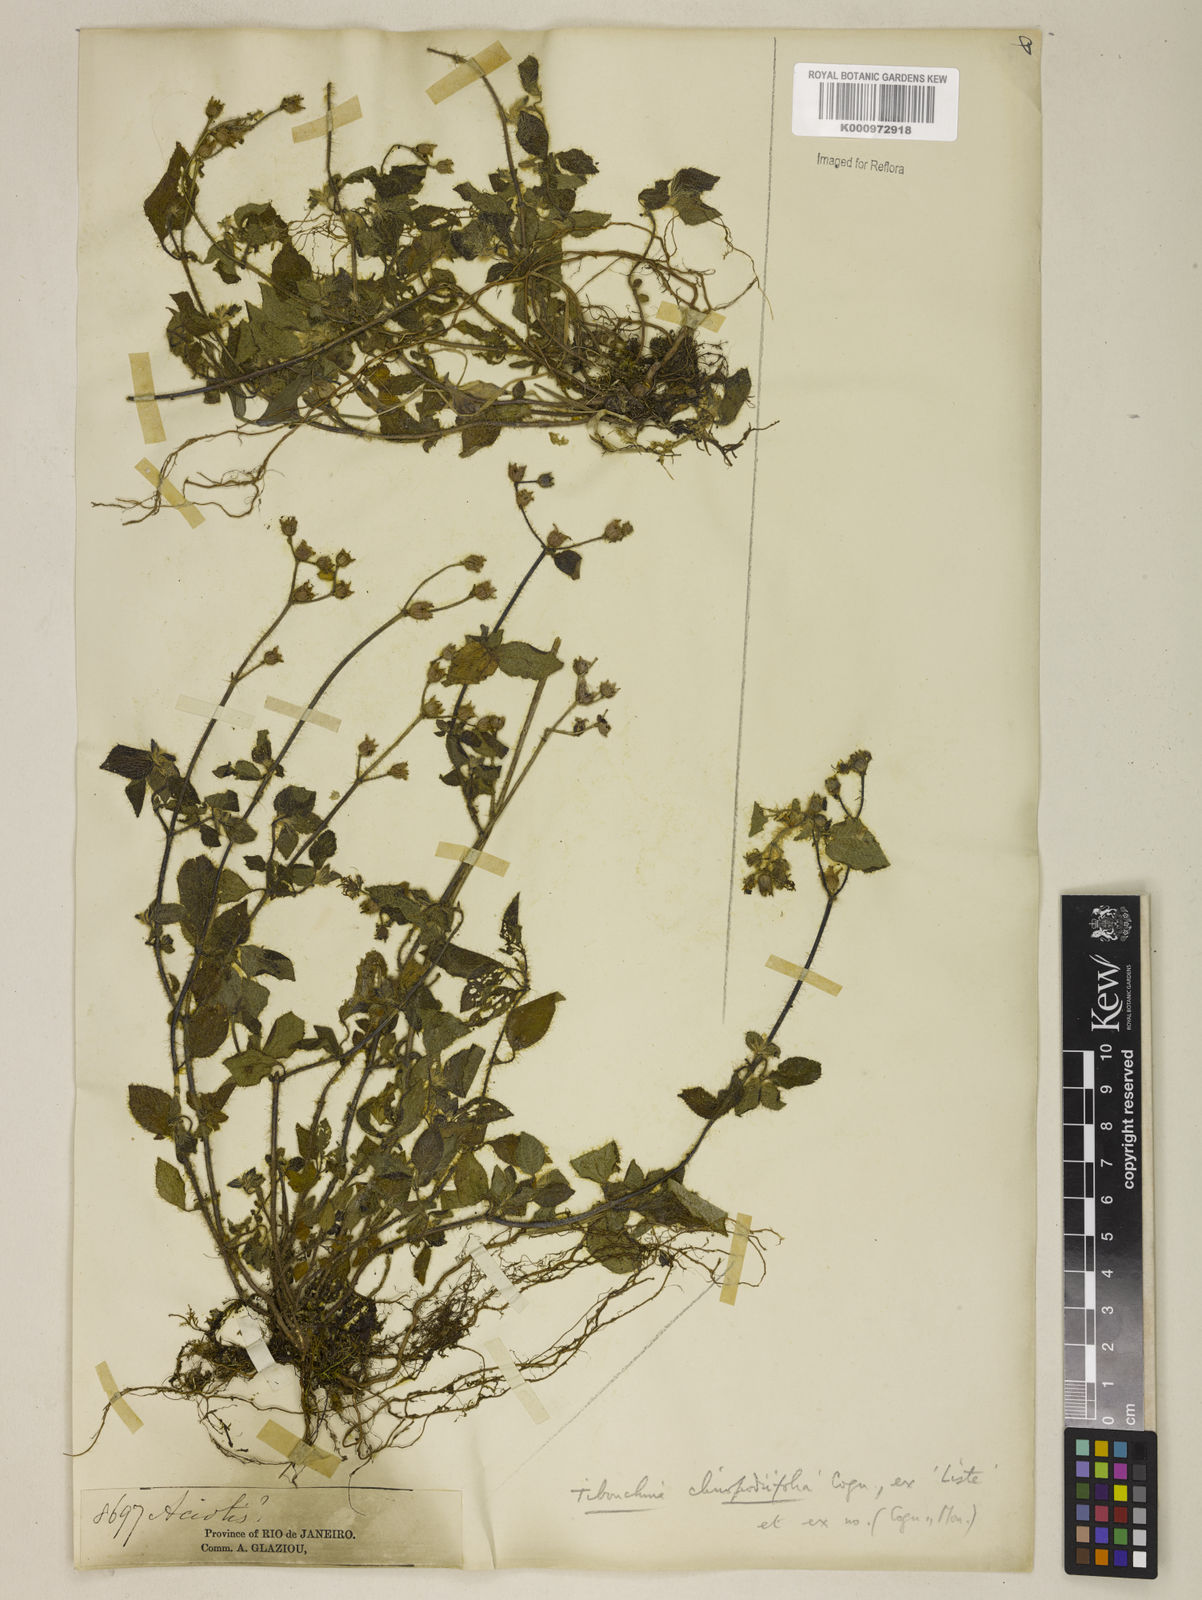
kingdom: Plantae
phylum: Tracheophyta
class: Magnoliopsida
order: Myrtales
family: Melastomataceae
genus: Chaetogastra
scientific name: Chaetogastra clinopodifolia
